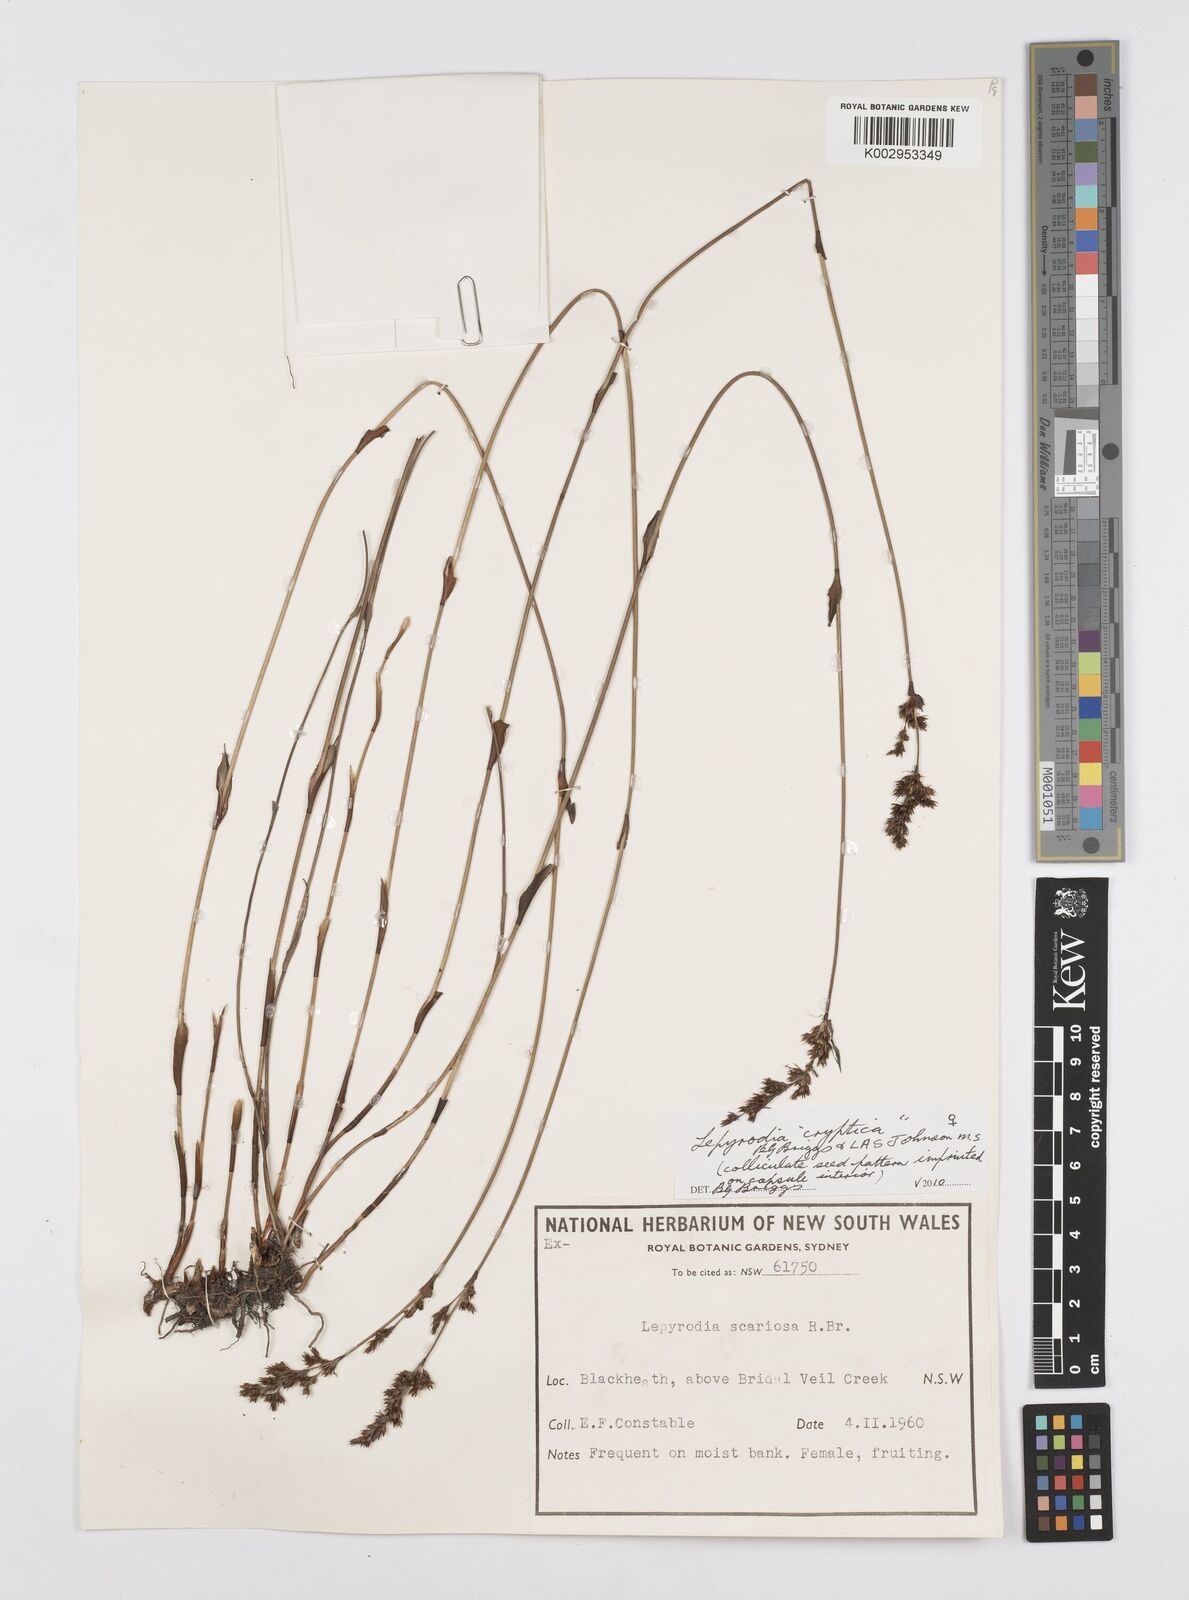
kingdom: Plantae
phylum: Tracheophyta
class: Liliopsida
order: Poales
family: Restionaceae
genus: Lepyrodia
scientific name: Lepyrodia cryptica
